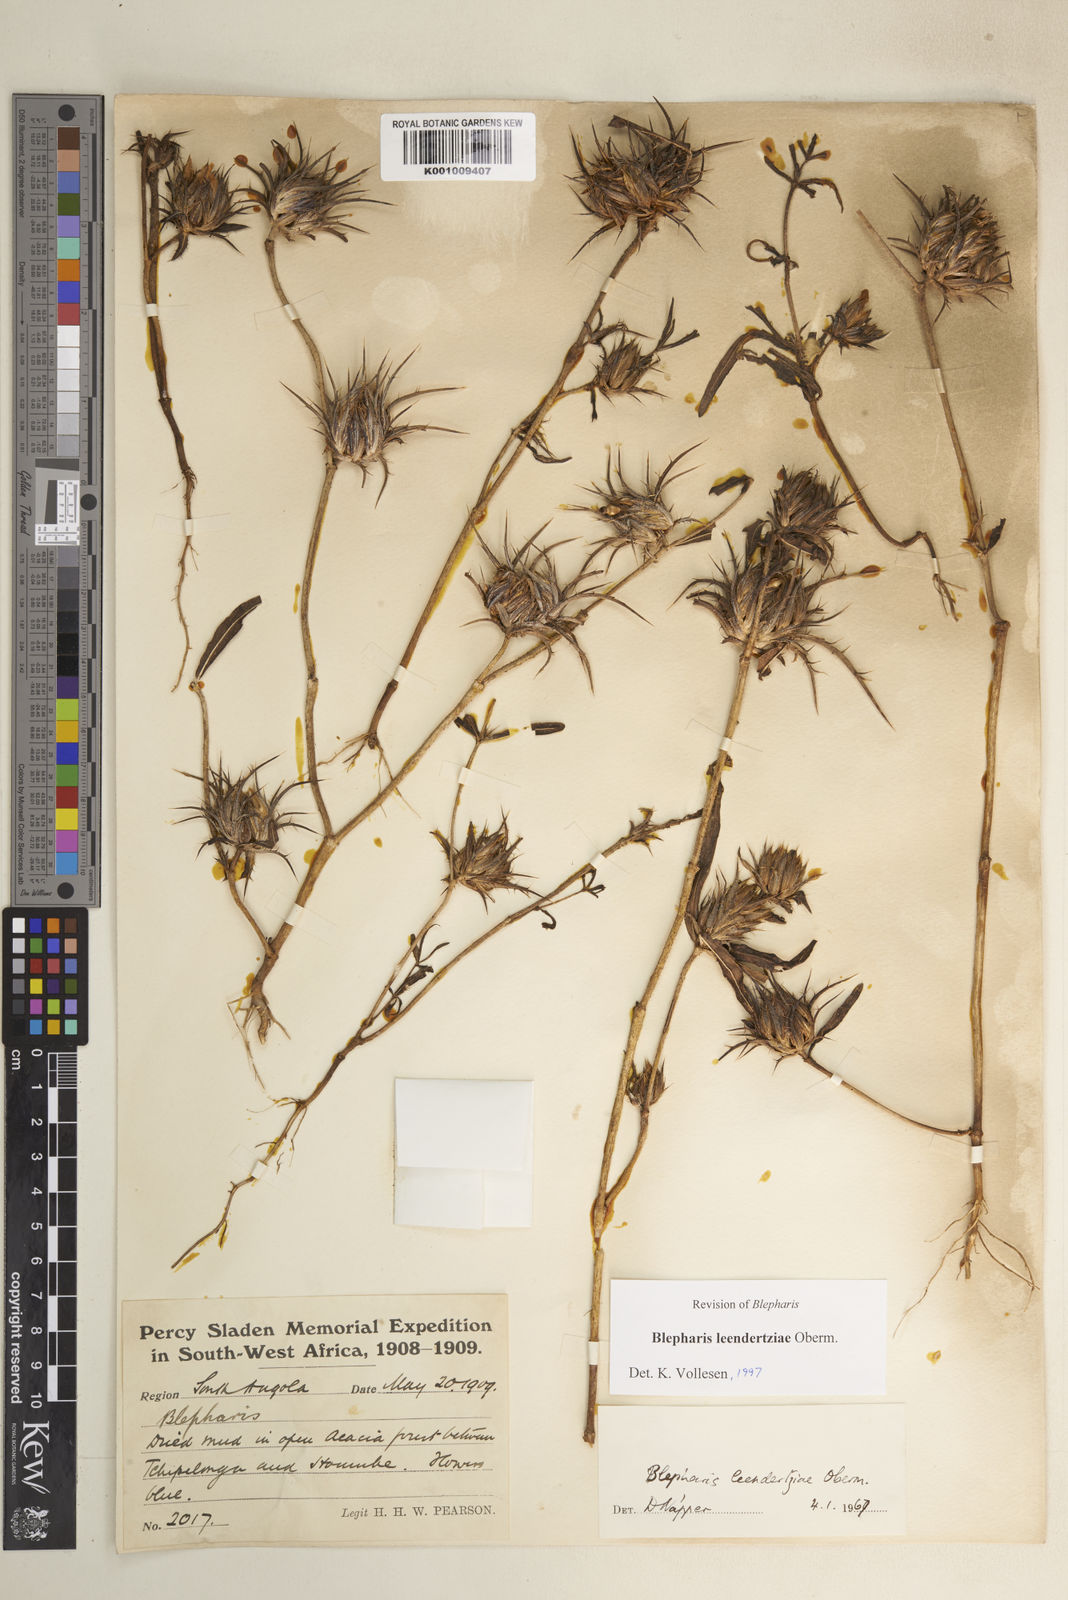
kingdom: Plantae
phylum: Tracheophyta
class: Magnoliopsida
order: Lamiales
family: Acanthaceae
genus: Blepharis
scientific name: Blepharis leendertziae
